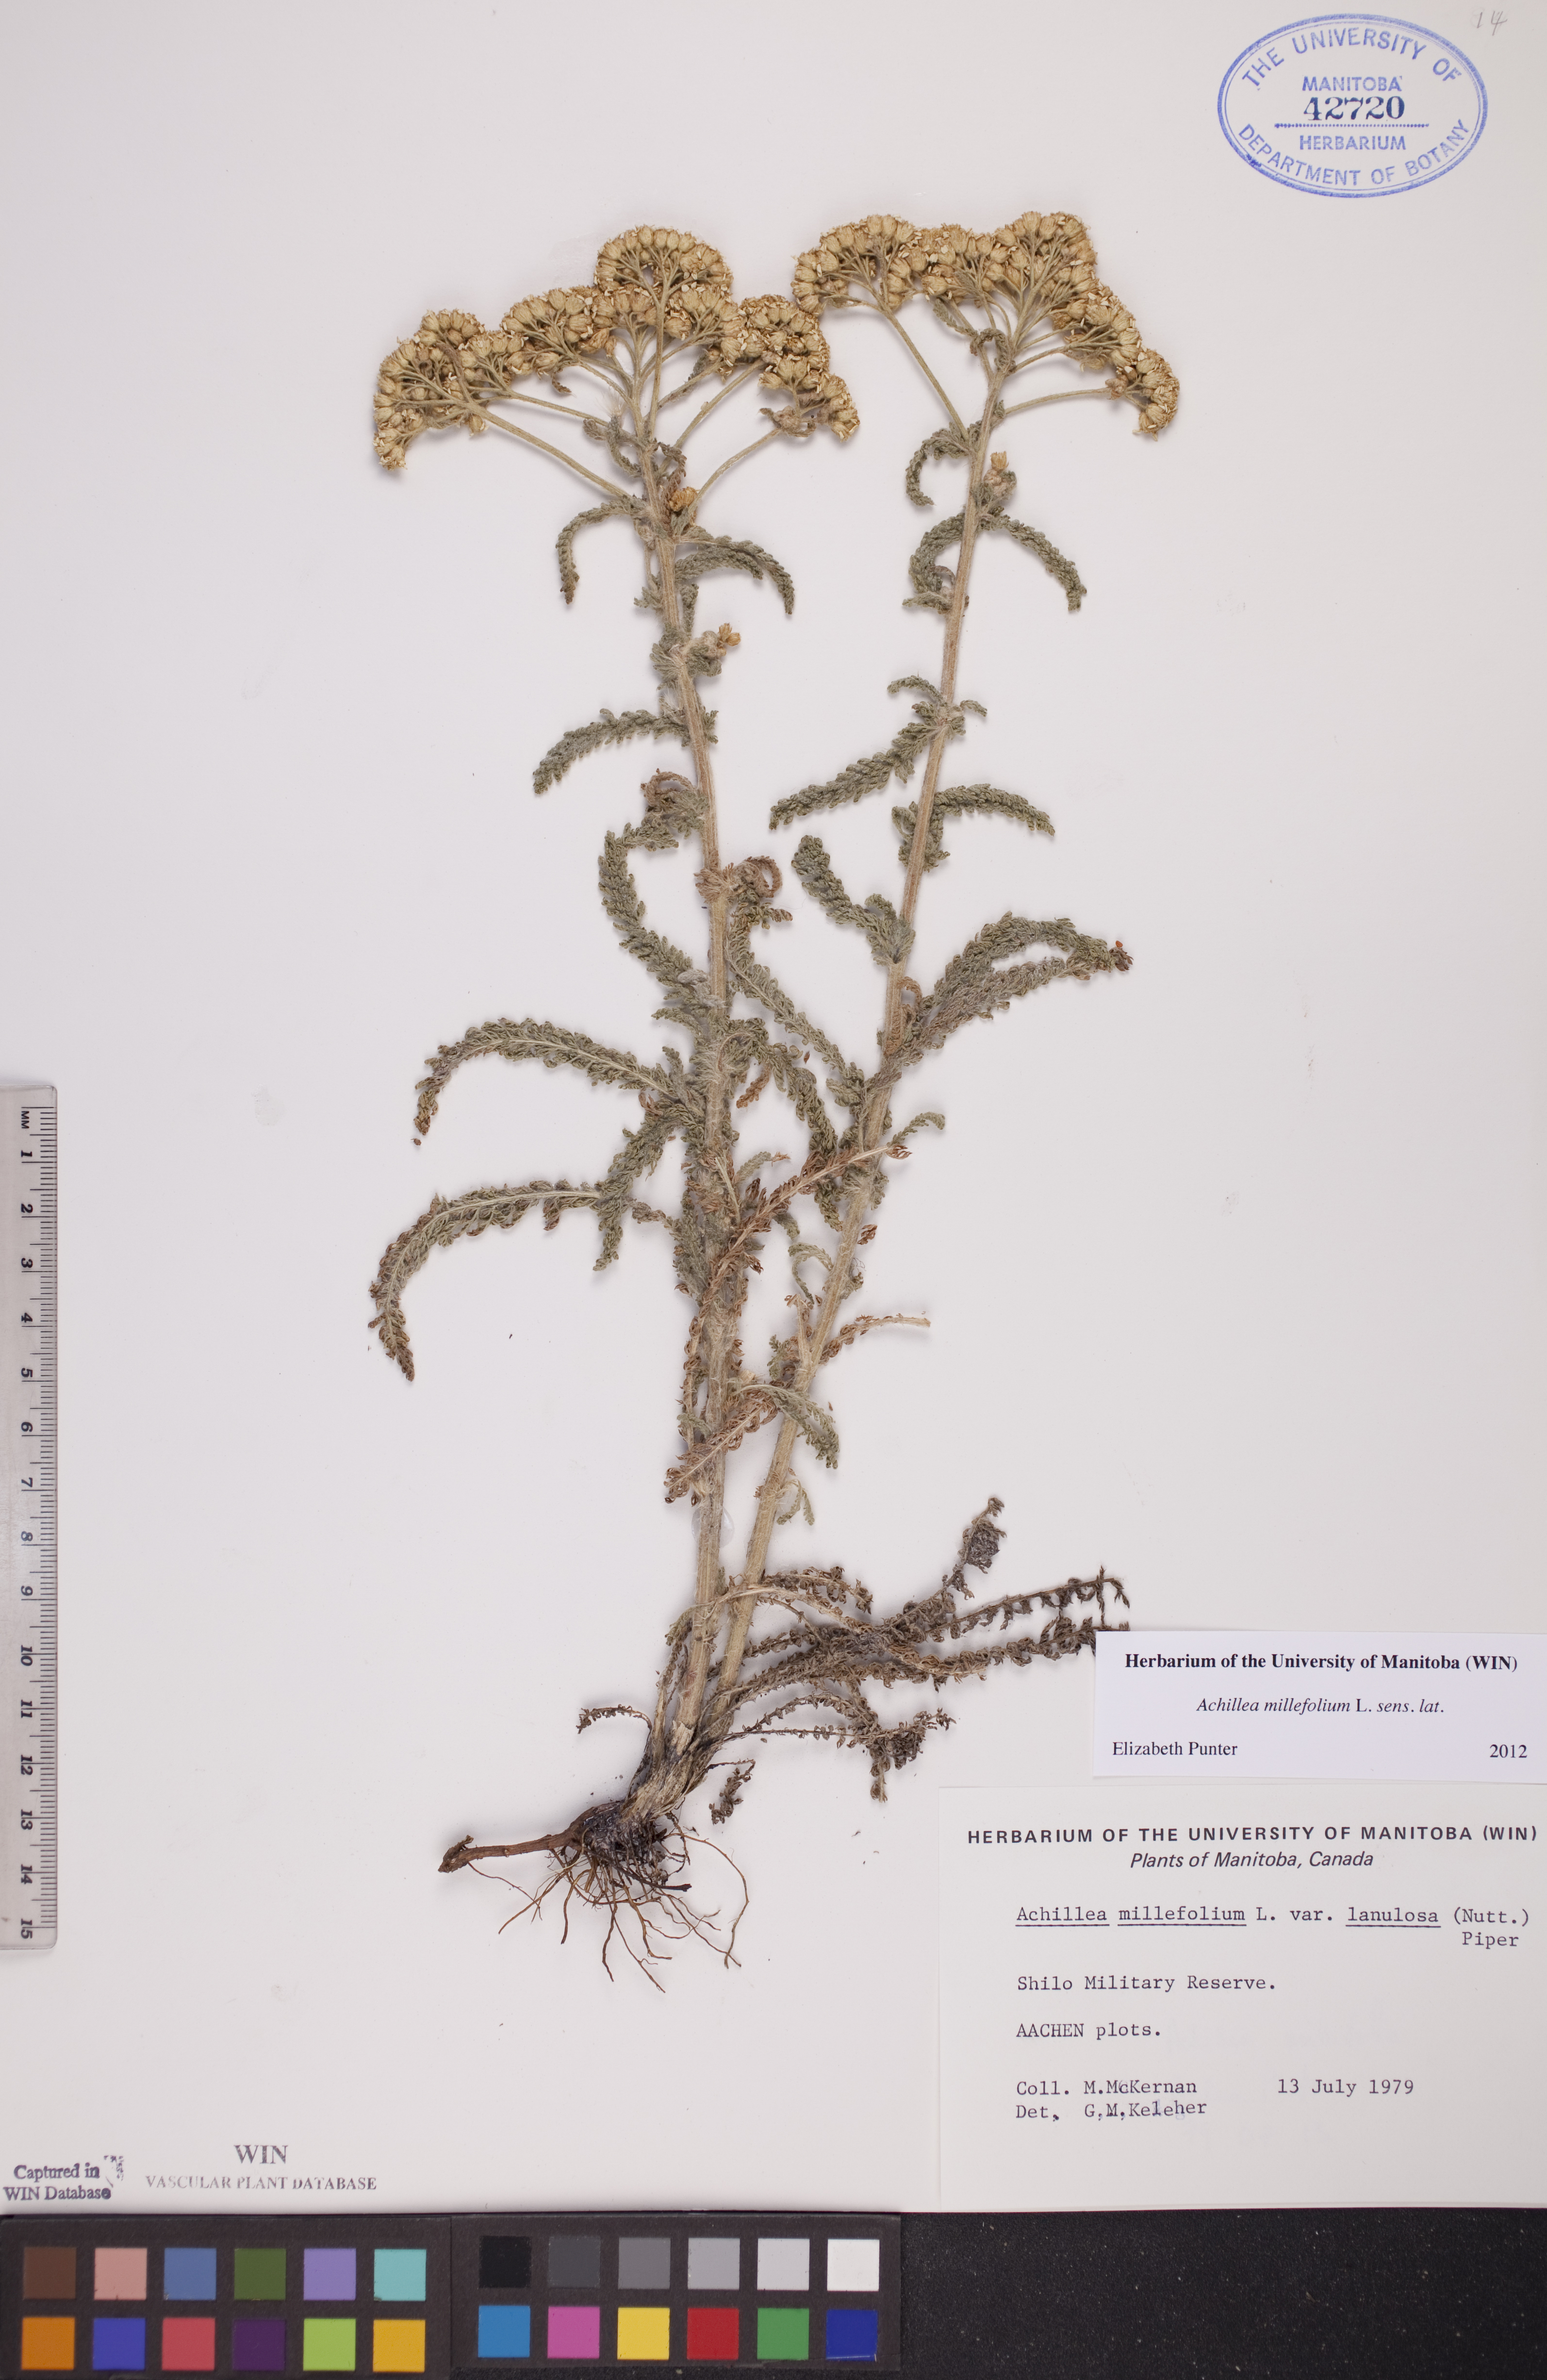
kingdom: Plantae
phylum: Tracheophyta
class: Magnoliopsida
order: Asterales
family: Asteraceae
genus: Achillea
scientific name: Achillea millefolium
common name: Yarrow
